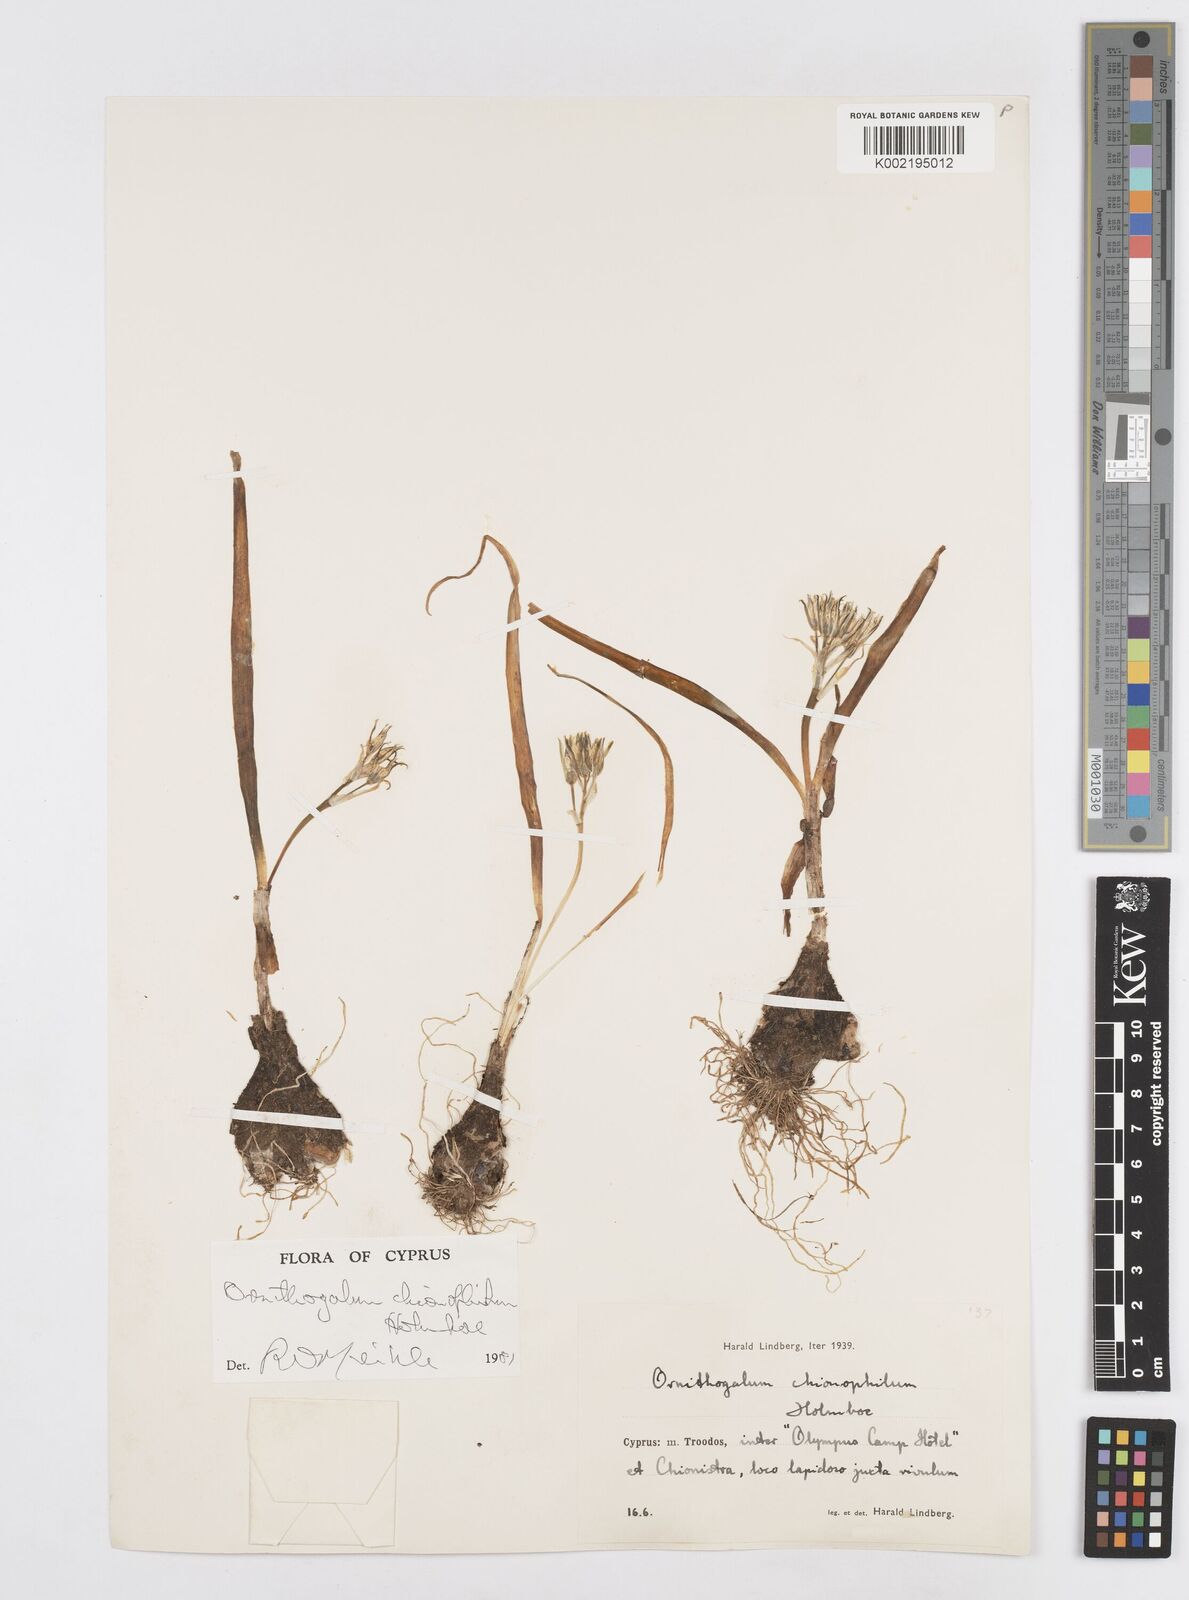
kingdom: Plantae
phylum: Tracheophyta
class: Liliopsida
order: Asparagales
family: Asparagaceae
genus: Ornithogalum
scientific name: Ornithogalum chionophilum
